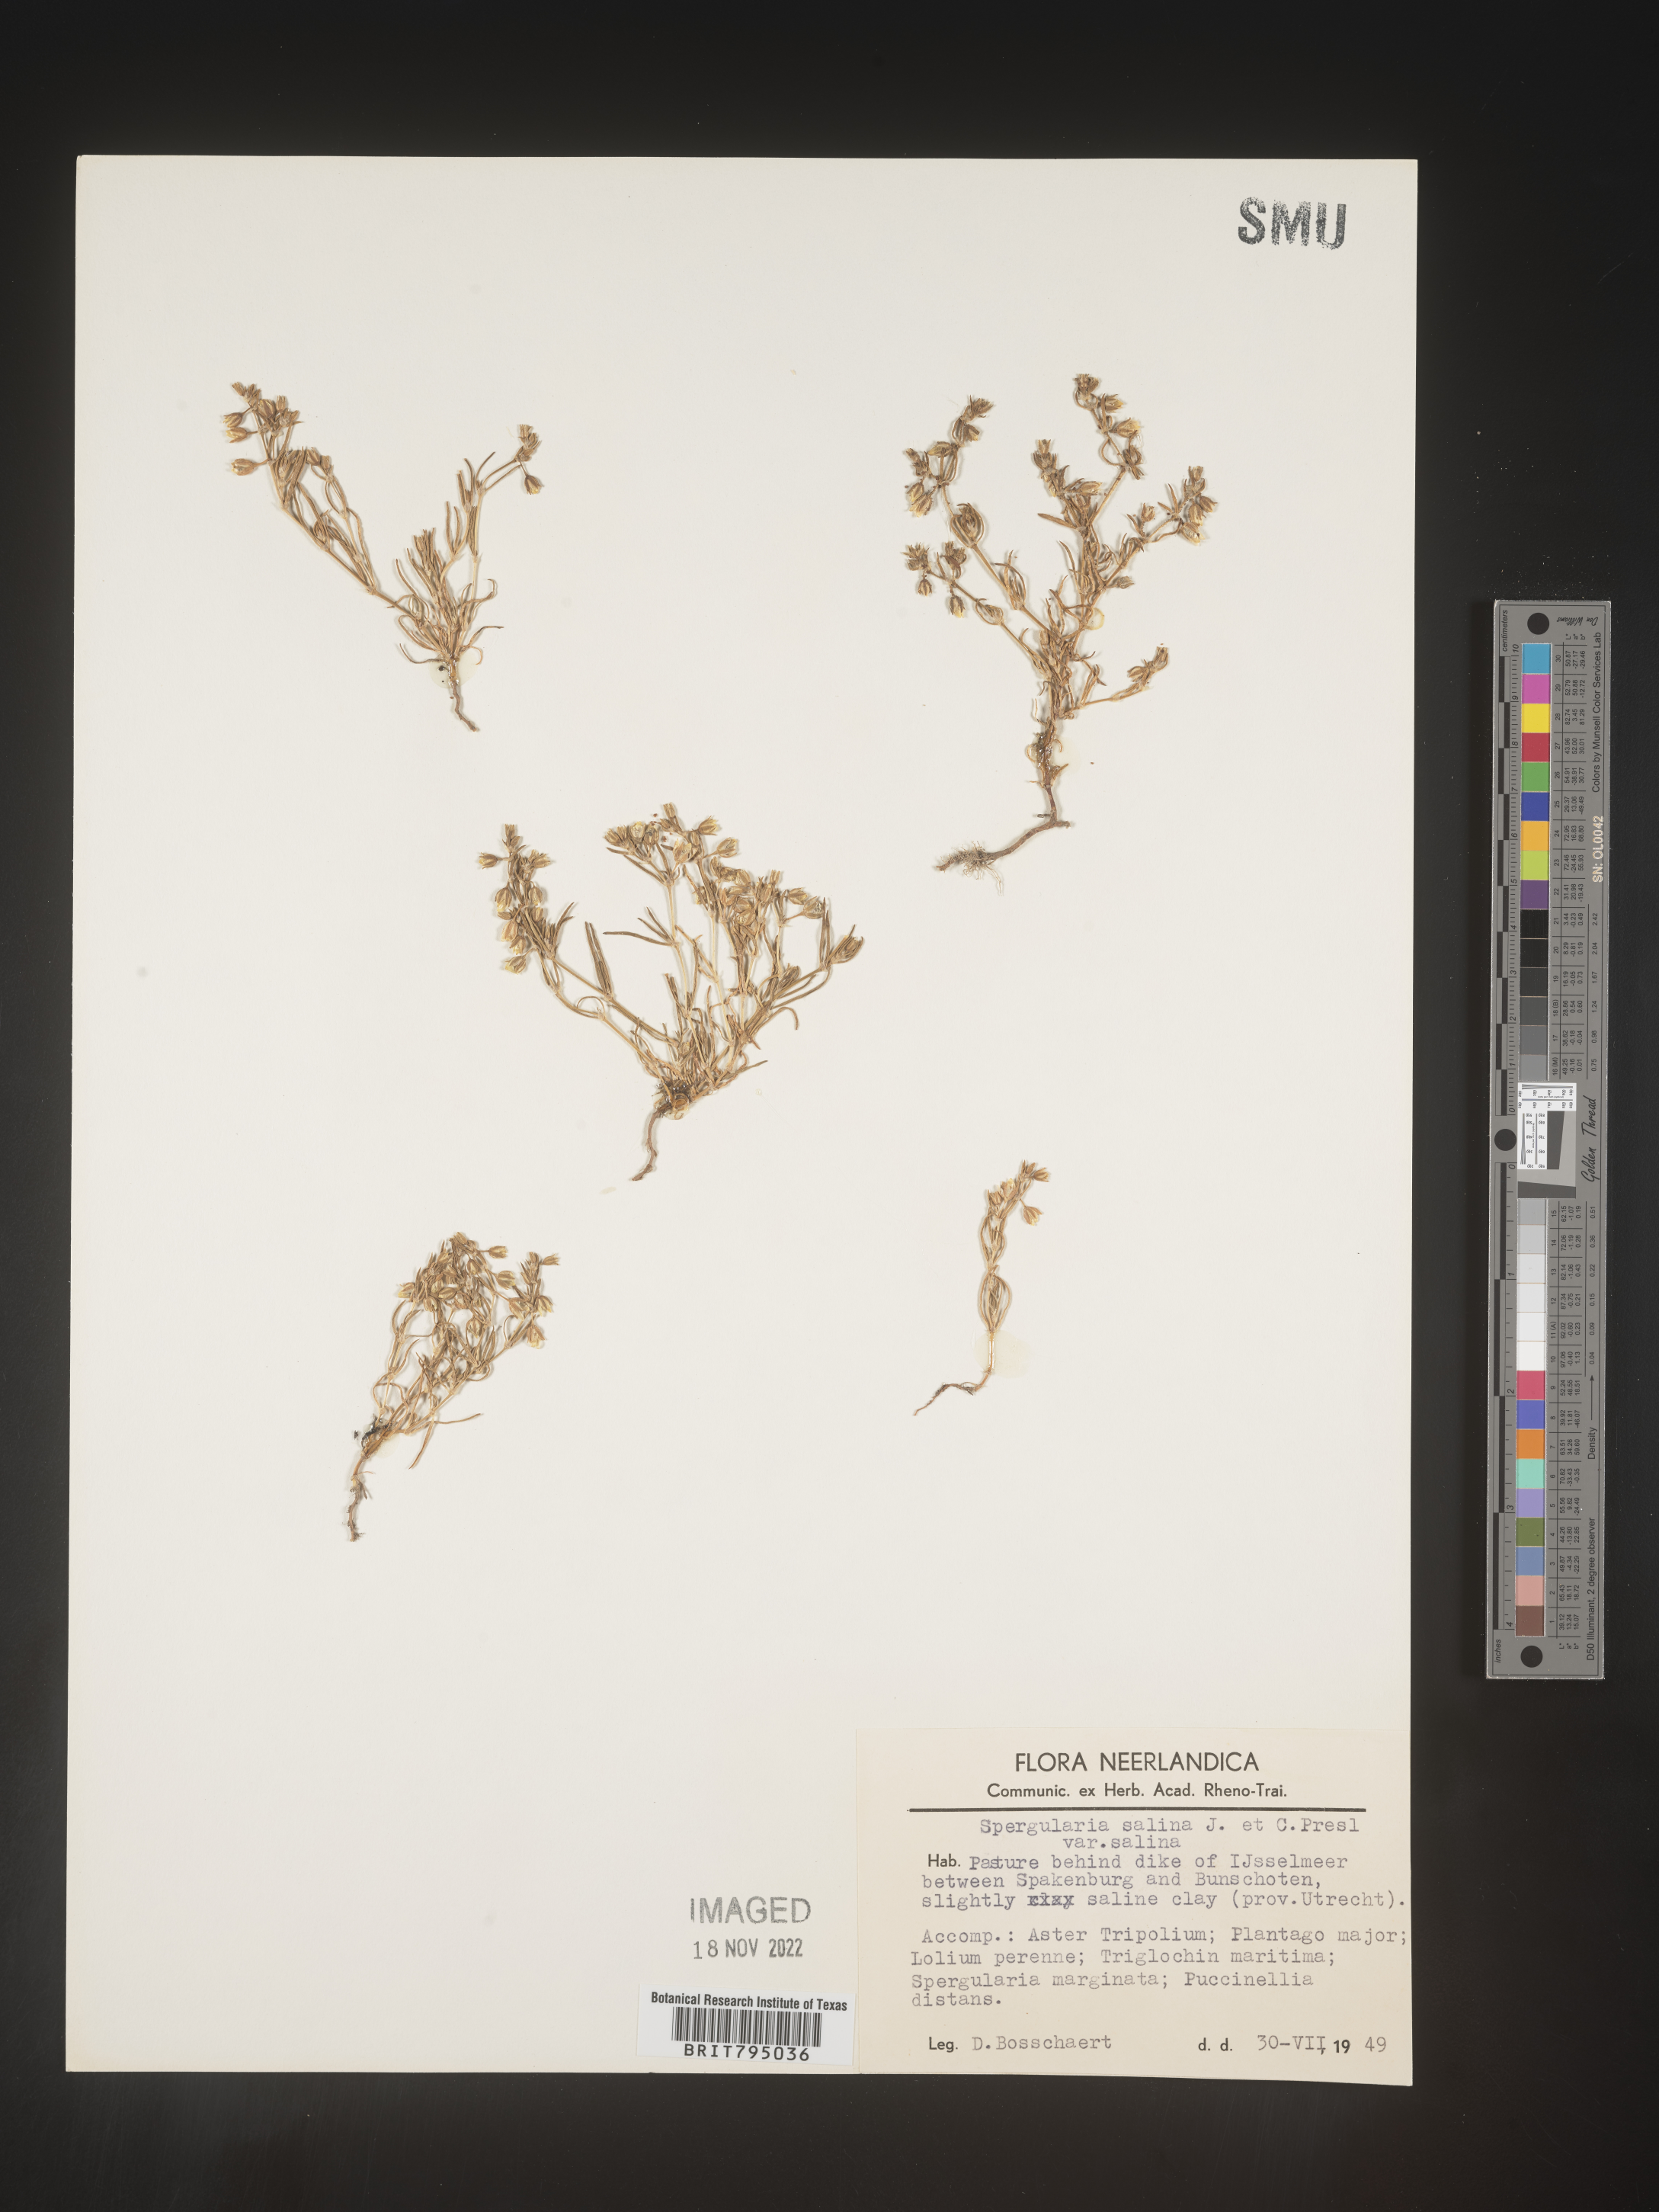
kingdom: Plantae
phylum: Tracheophyta
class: Magnoliopsida
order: Caryophyllales
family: Caryophyllaceae
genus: Spergularia
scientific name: Spergularia marina
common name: Lesser sea-spurrey
